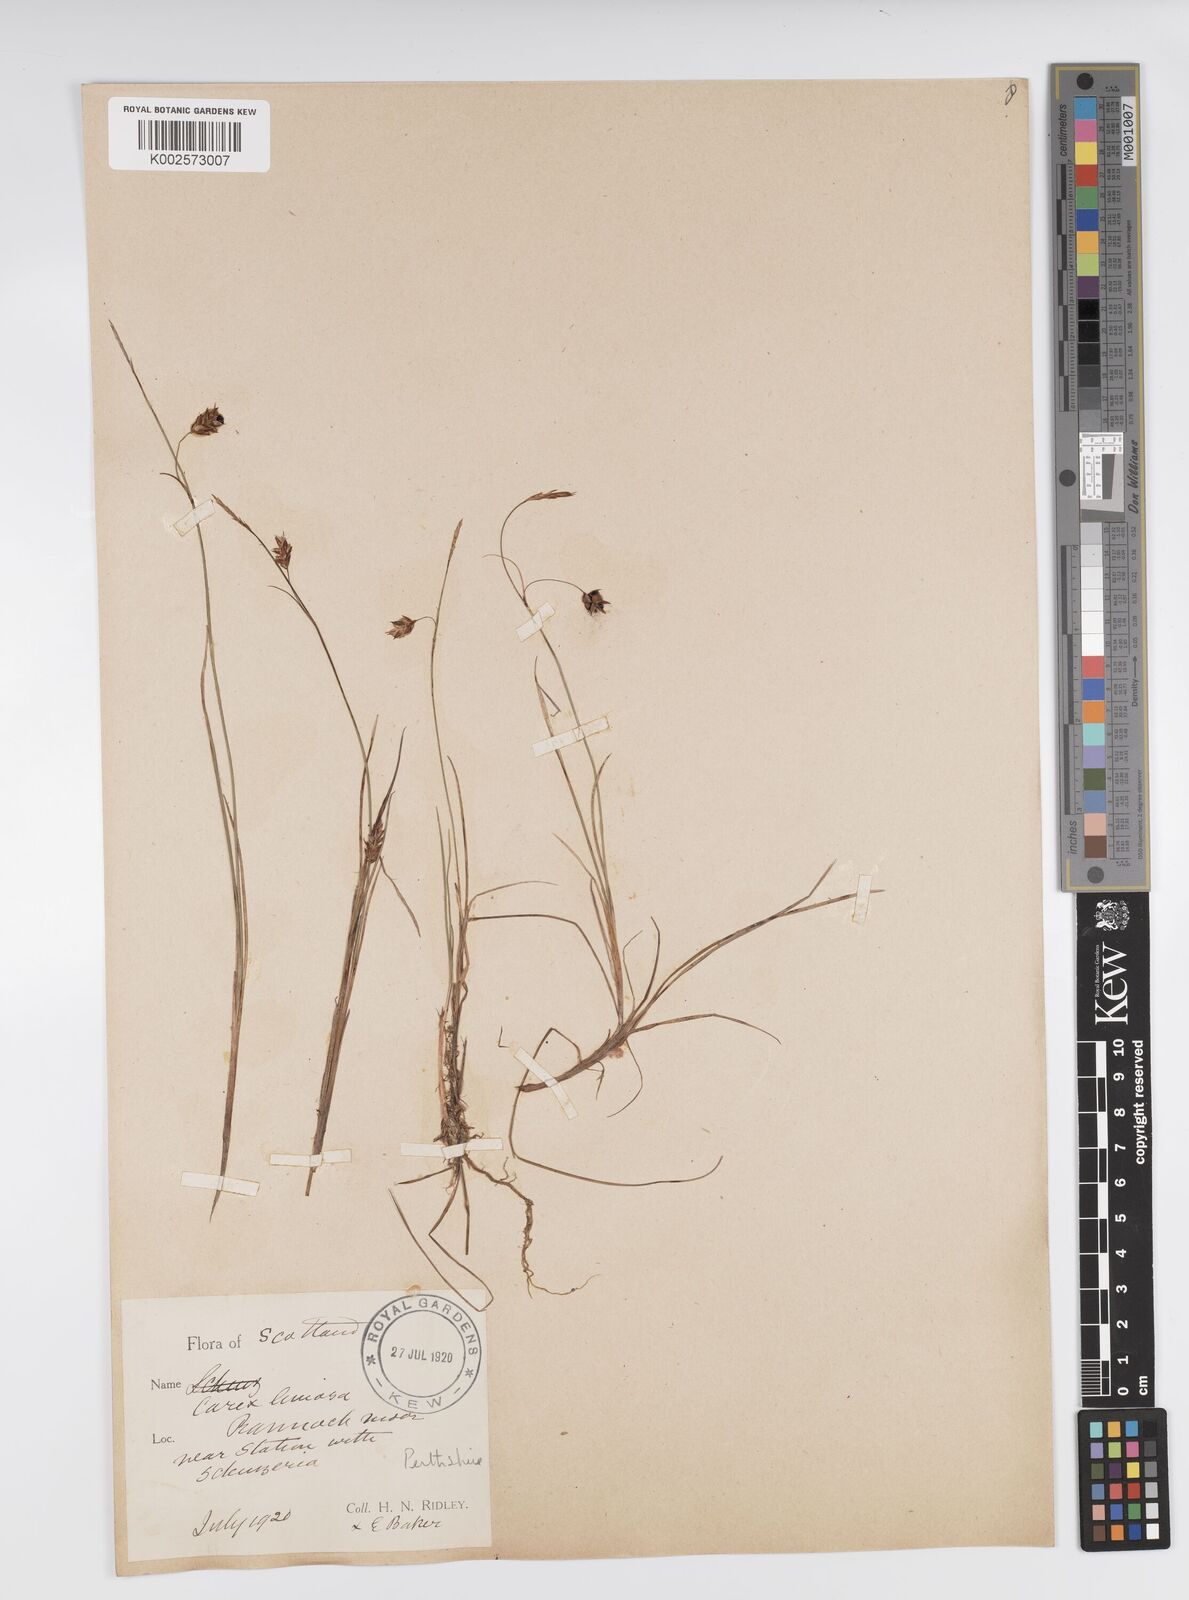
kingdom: Plantae
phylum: Tracheophyta
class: Liliopsida
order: Poales
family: Cyperaceae
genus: Carex
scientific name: Carex limosa
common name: Bog sedge
